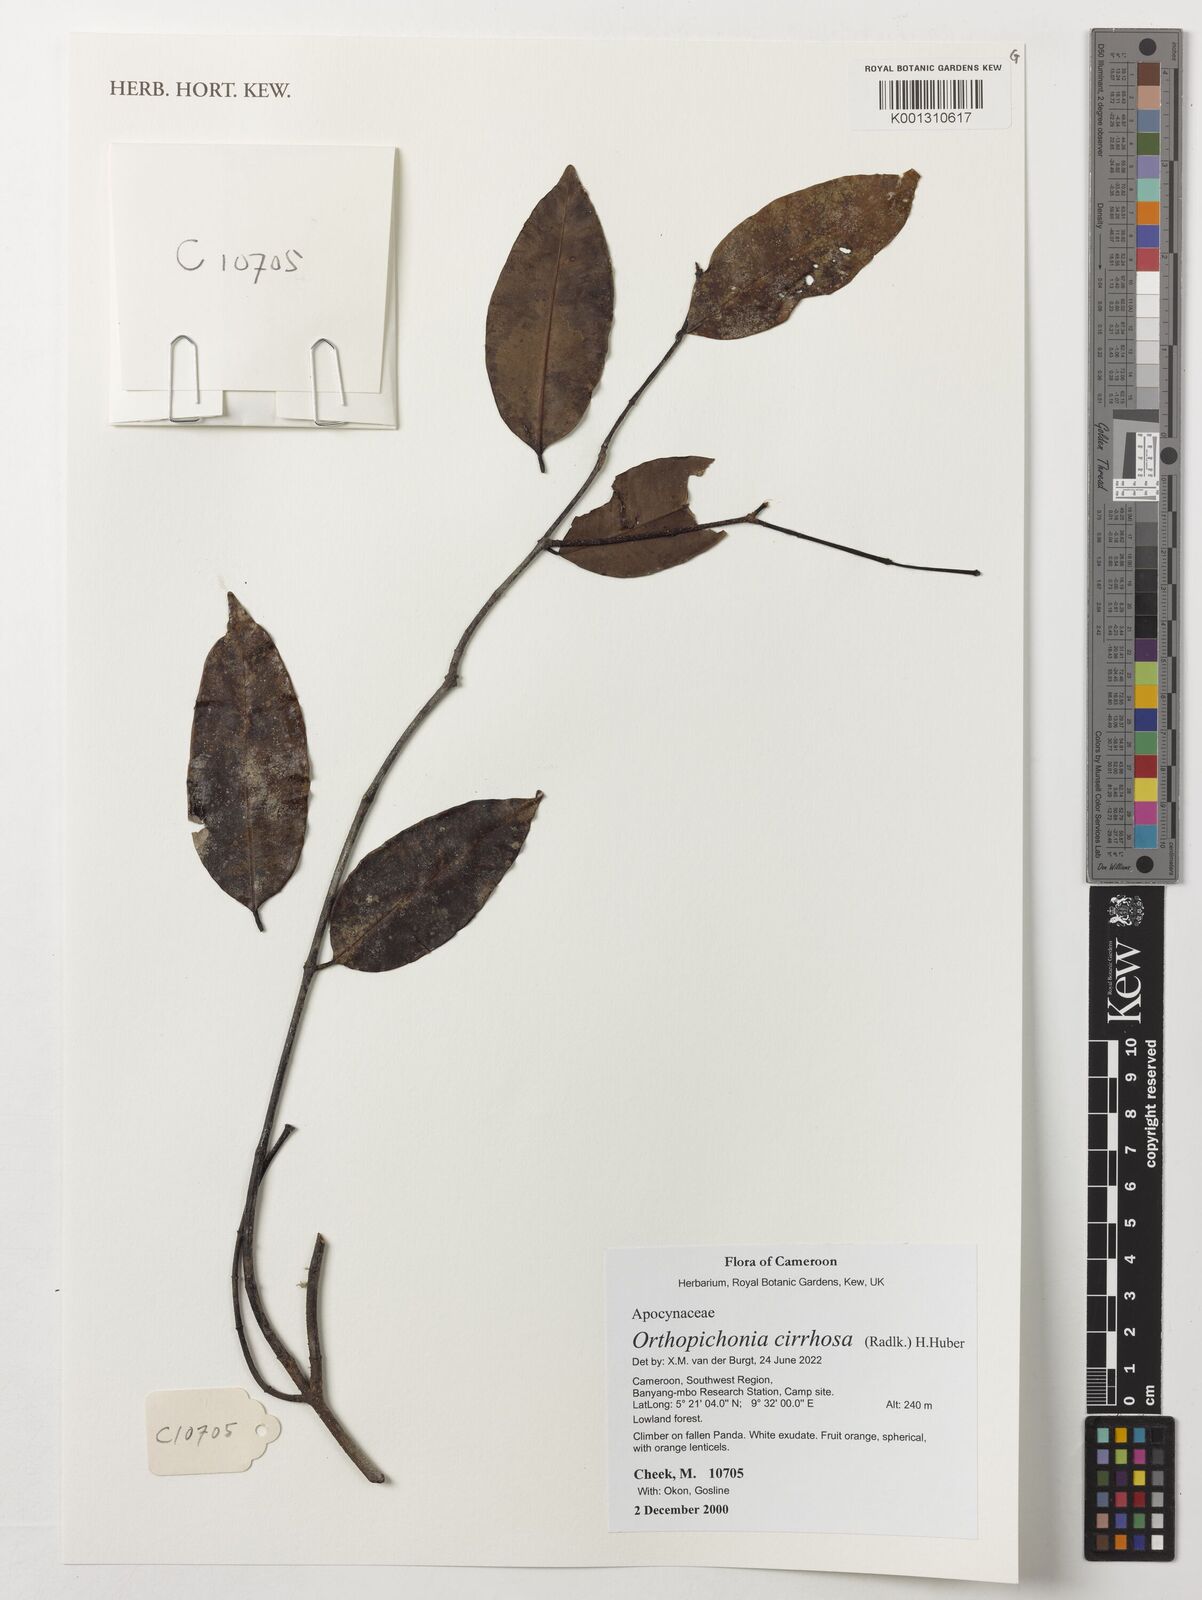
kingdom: Plantae
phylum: Tracheophyta
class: Magnoliopsida
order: Gentianales
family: Apocynaceae
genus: Orthopichonia
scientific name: Orthopichonia cirrhosa
